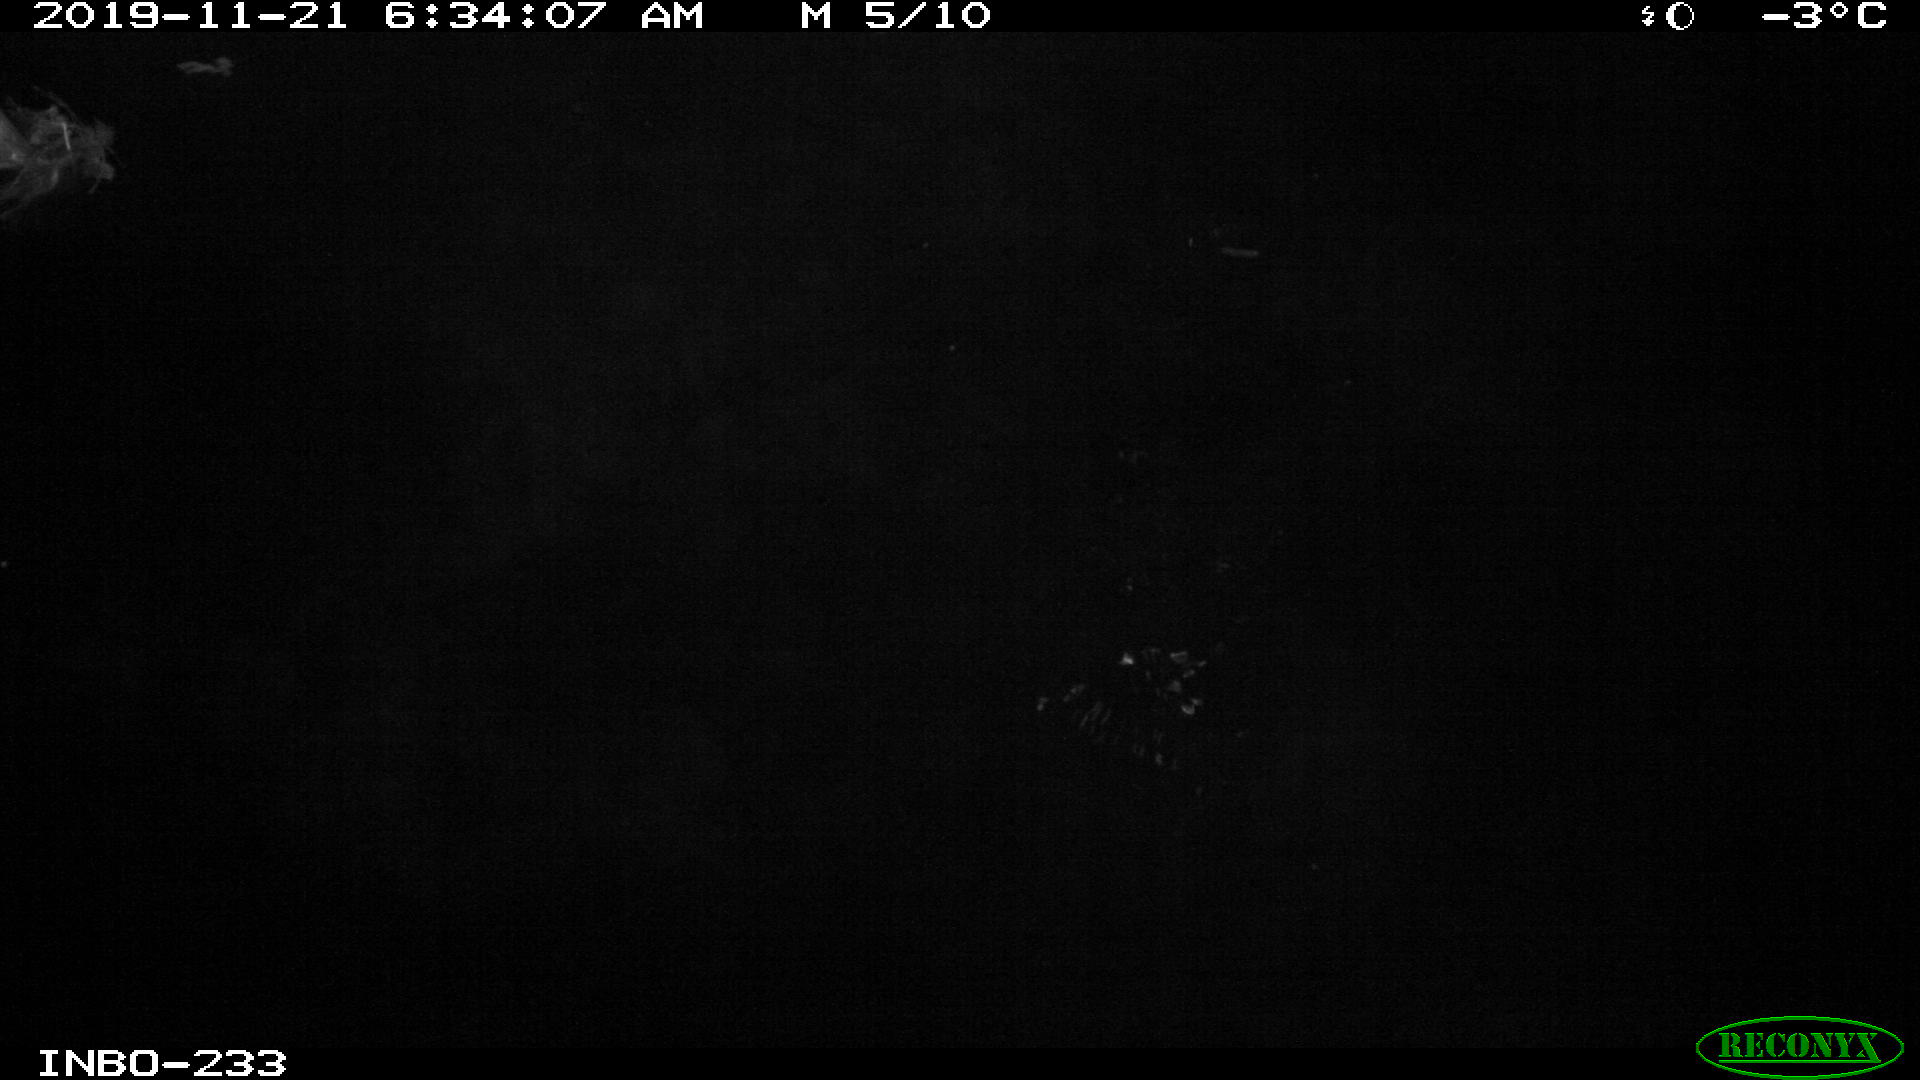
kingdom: Animalia
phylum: Chordata
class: Aves
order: Anseriformes
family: Anatidae
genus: Anas
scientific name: Anas platyrhynchos
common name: Mallard
